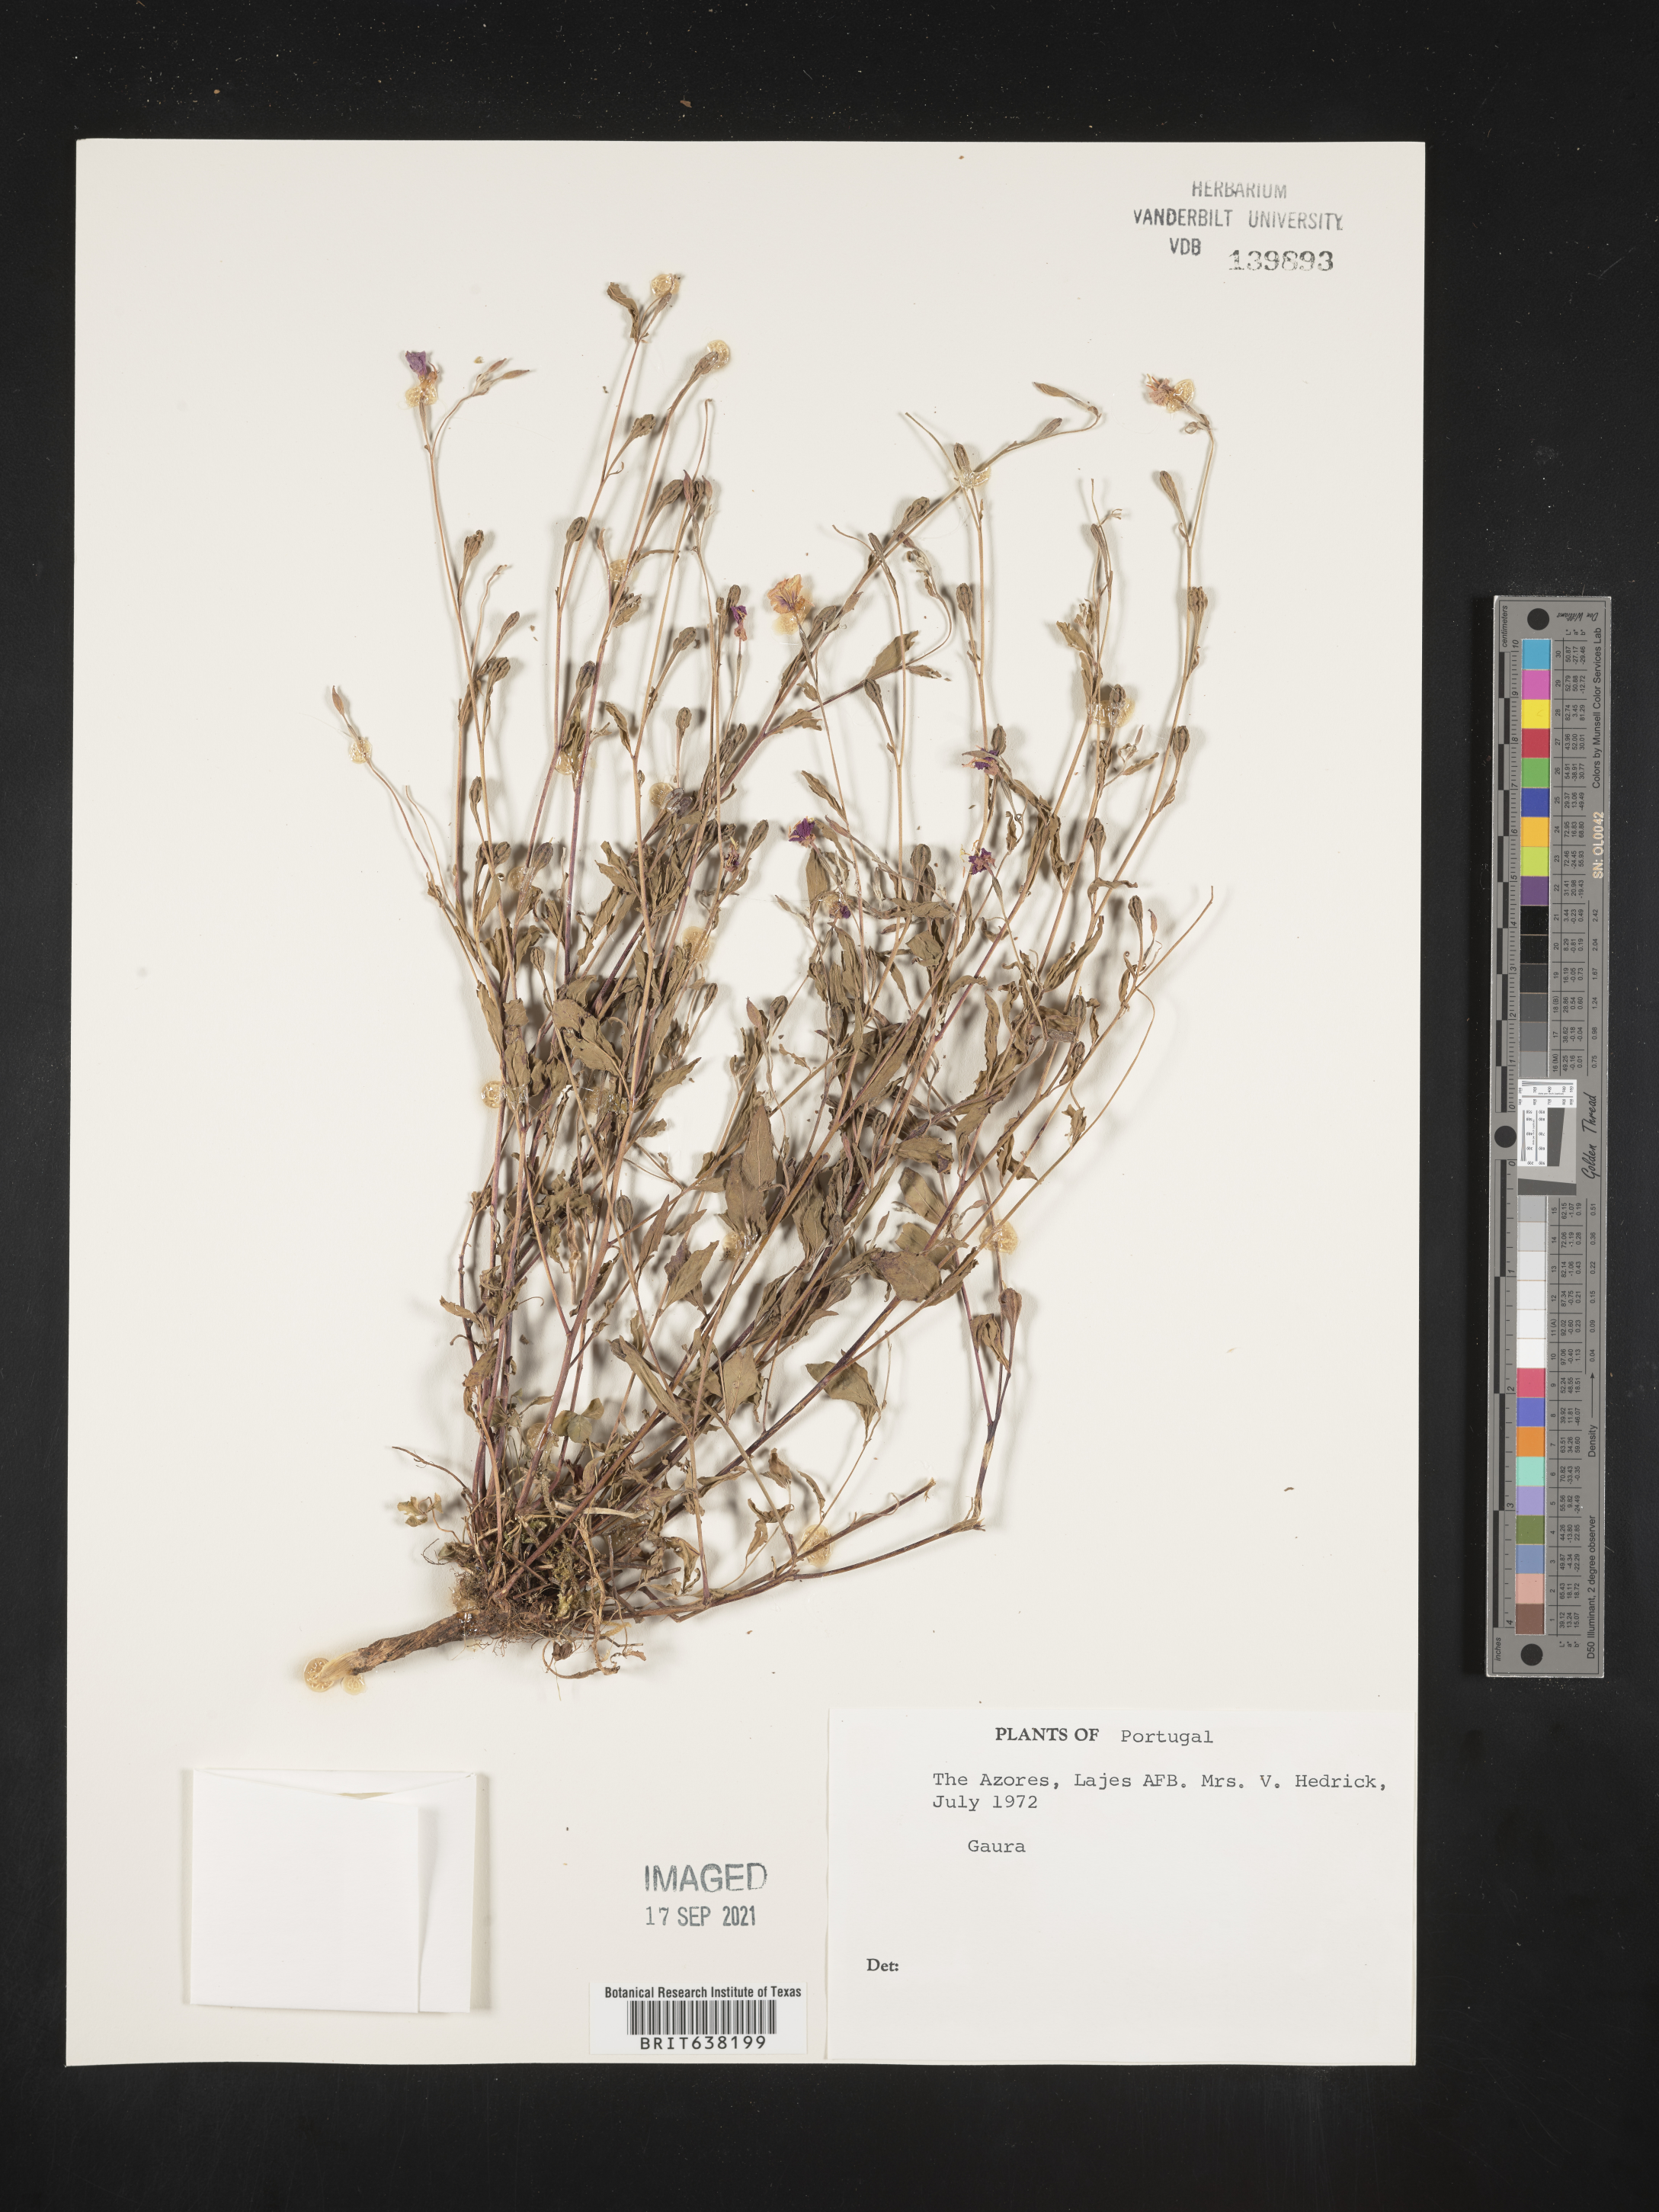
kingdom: Plantae
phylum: Tracheophyta
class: Magnoliopsida
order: Myrtales
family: Onagraceae
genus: Oenothera
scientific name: Oenothera
